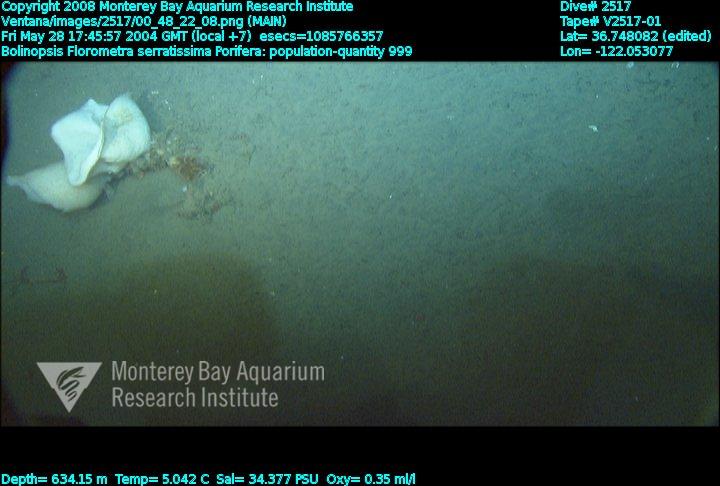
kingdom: Animalia
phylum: Porifera
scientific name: Porifera
